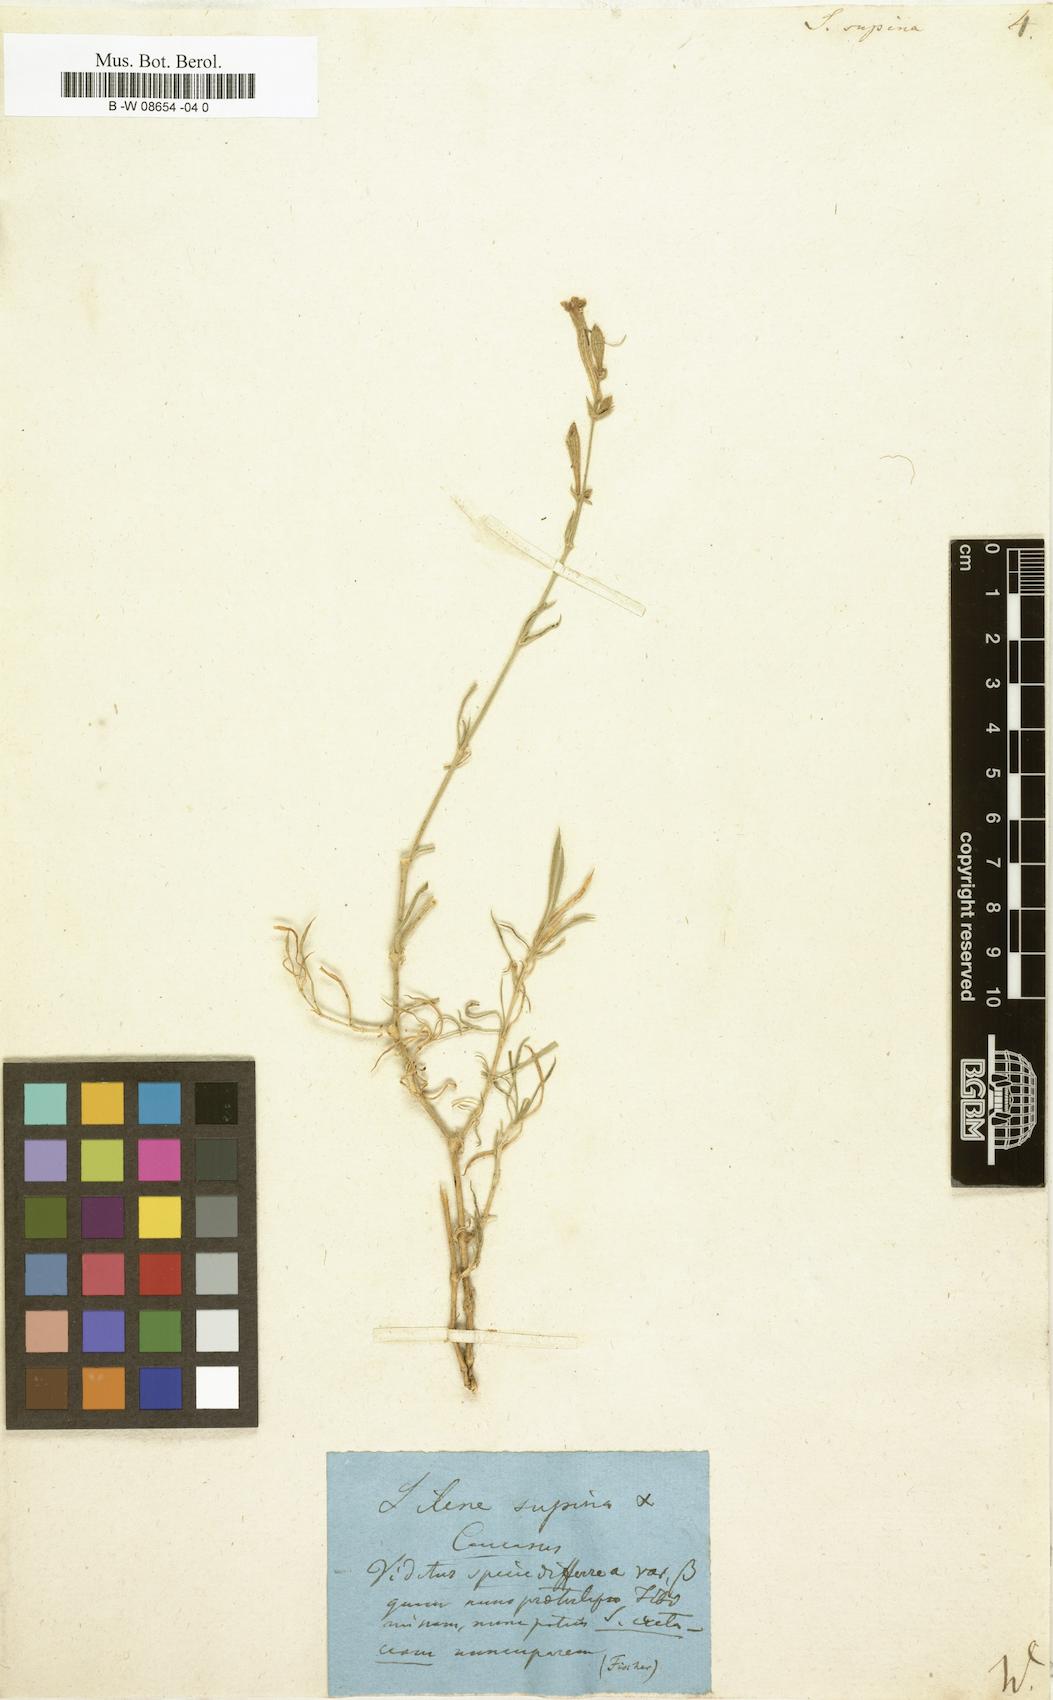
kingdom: Plantae
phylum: Tracheophyta
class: Magnoliopsida
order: Caryophyllales
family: Caryophyllaceae
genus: Silene
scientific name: Silene supina
